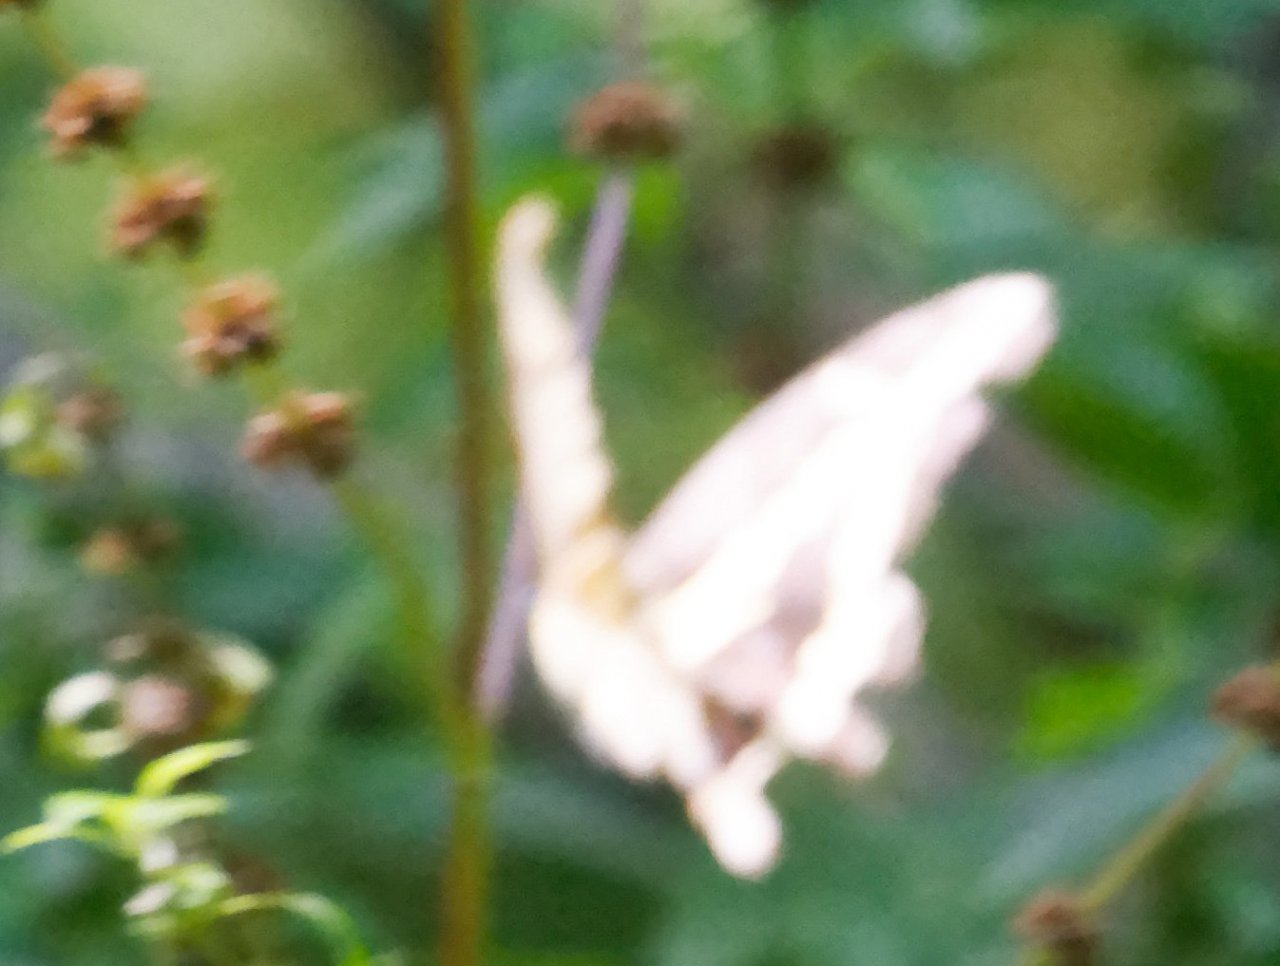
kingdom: Animalia
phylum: Arthropoda
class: Insecta
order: Lepidoptera
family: Papilionidae
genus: Papilio
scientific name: Papilio cresphontes
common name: Eastern Giant Swallowtail
